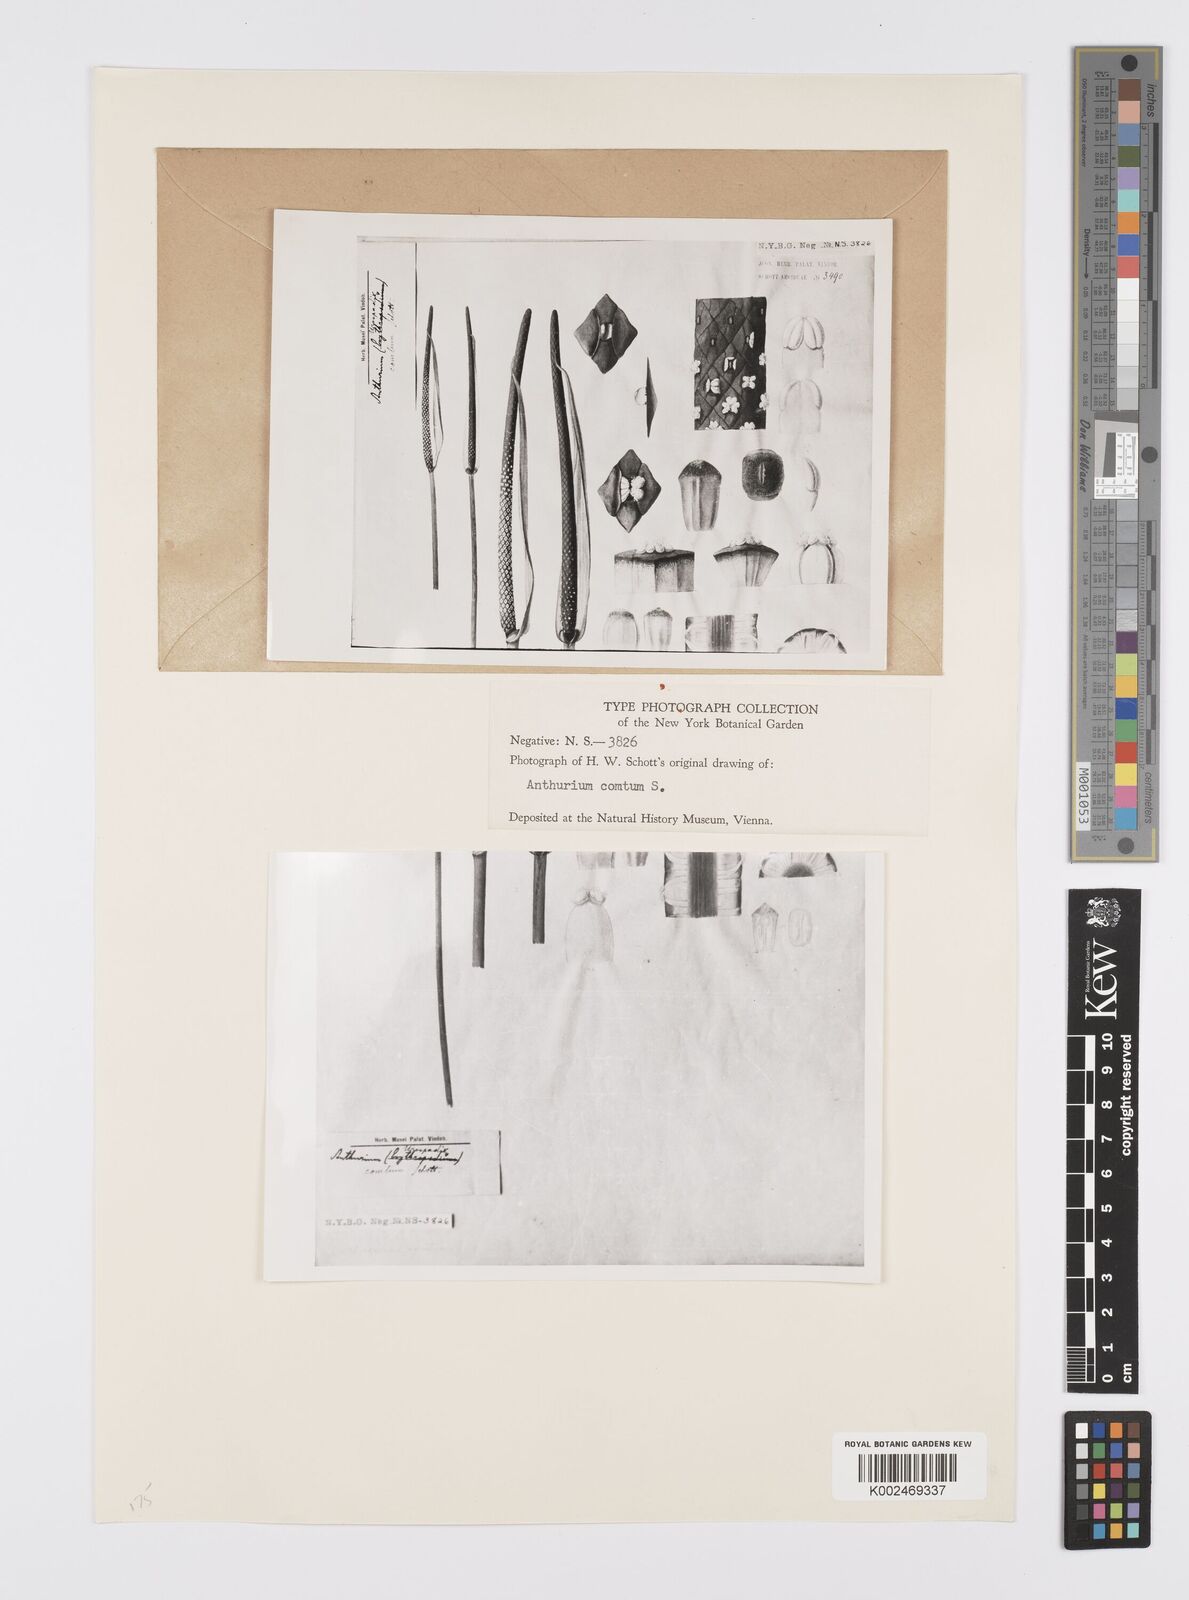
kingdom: Plantae
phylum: Tracheophyta
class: Liliopsida
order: Alismatales
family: Araceae
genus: Anthurium
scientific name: Anthurium comtum
